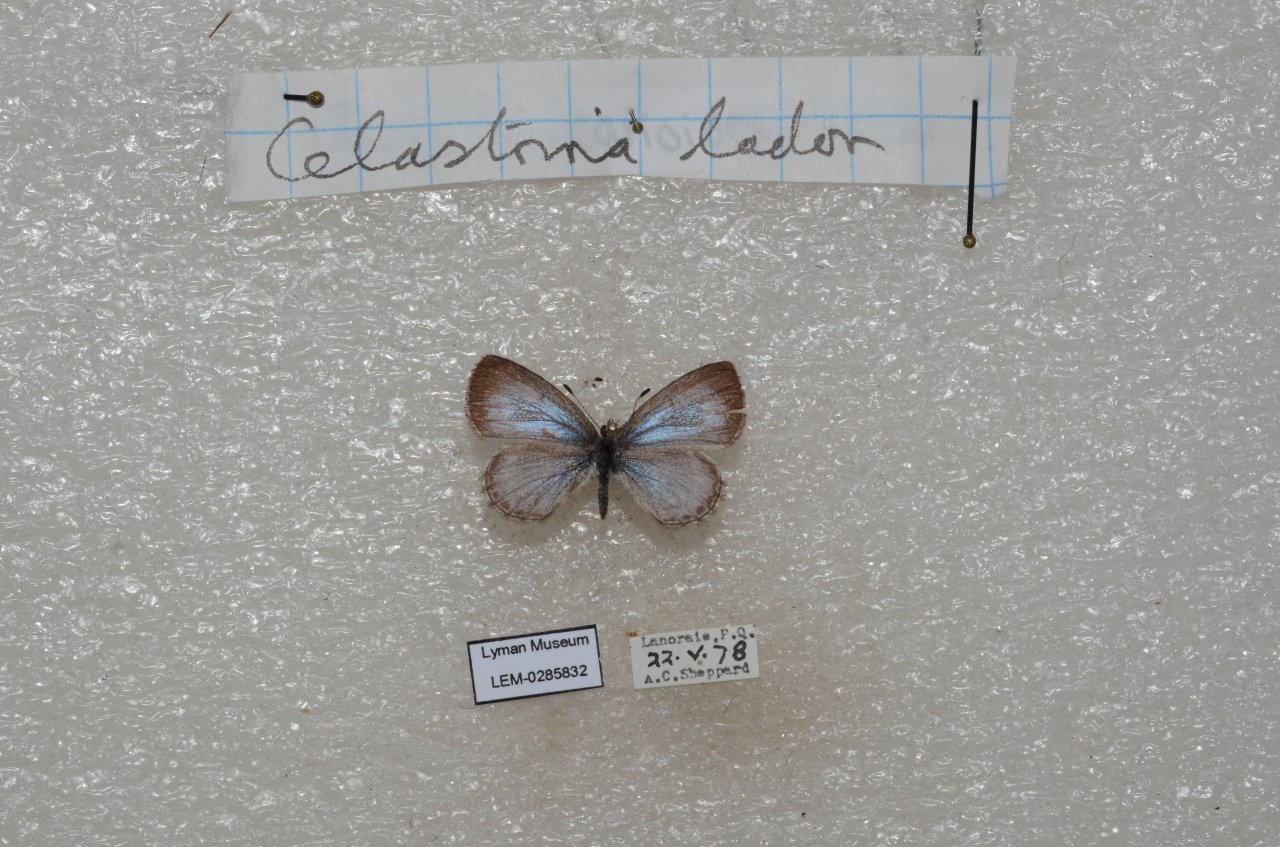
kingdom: Animalia
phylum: Arthropoda
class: Insecta
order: Lepidoptera
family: Lycaenidae
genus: Celastrina
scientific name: Celastrina lucia
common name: Northern Spring Azure
